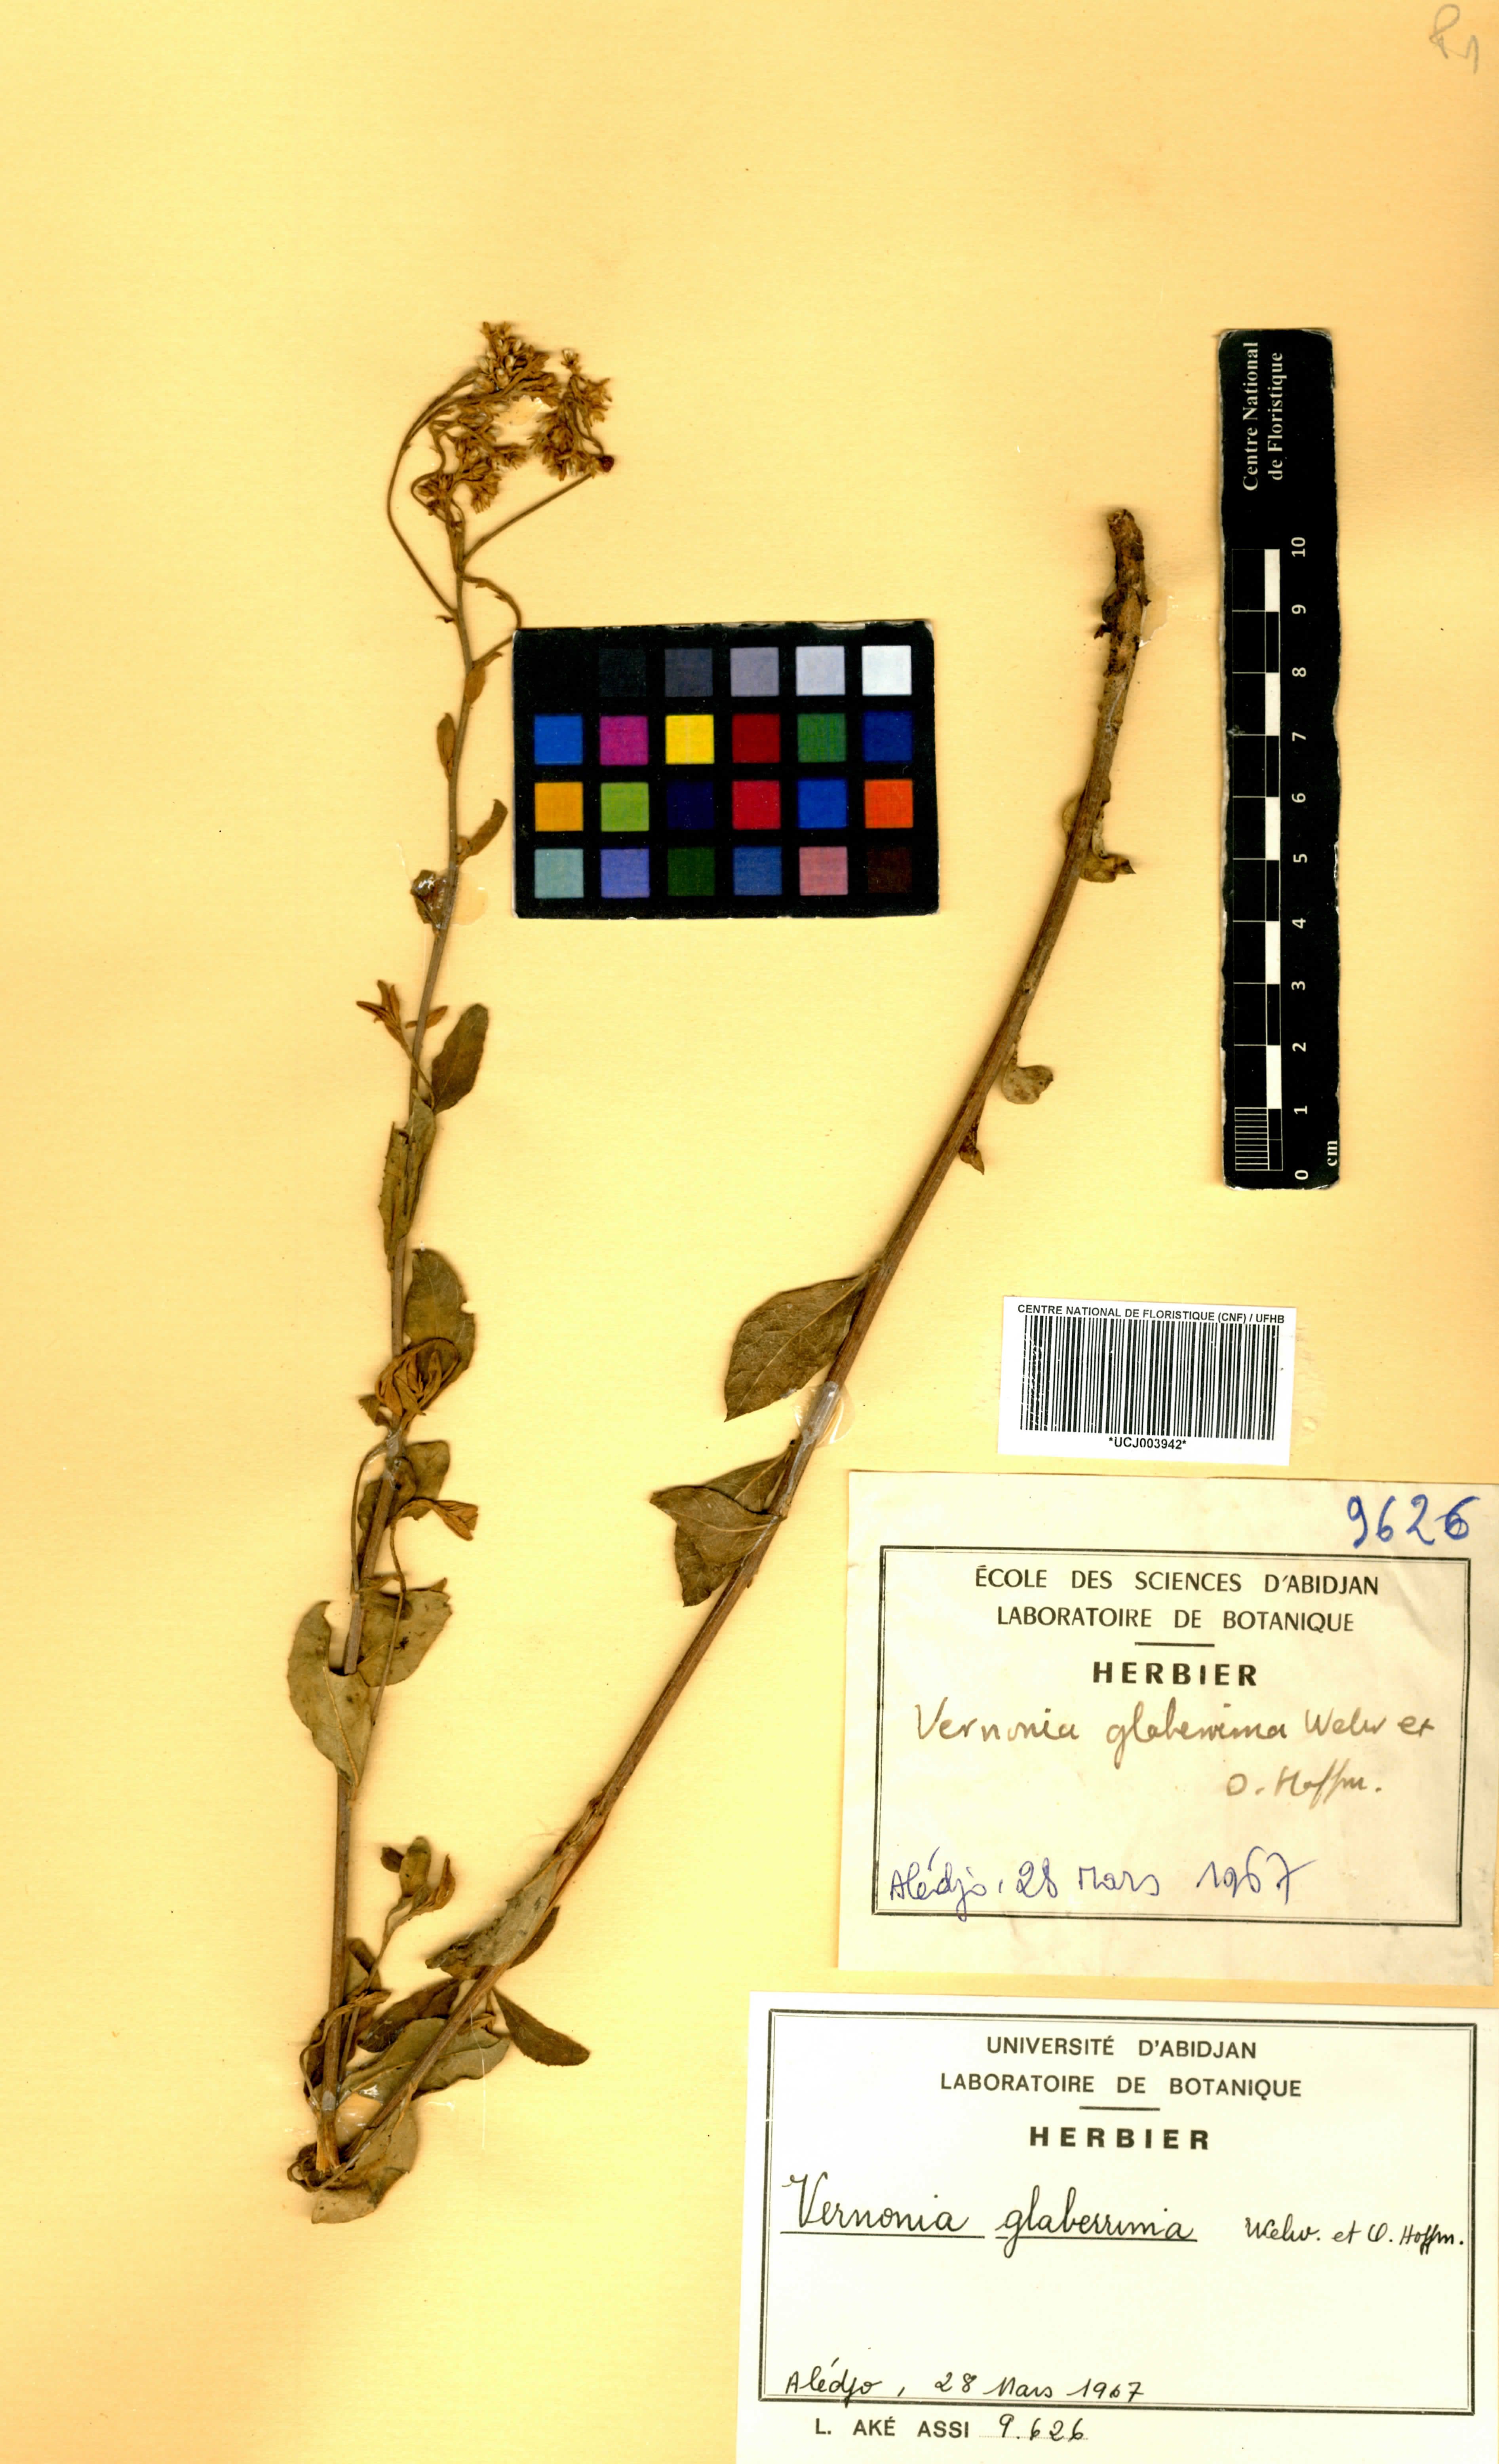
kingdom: Plantae
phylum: Tracheophyta
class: Magnoliopsida
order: Asterales
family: Asteraceae
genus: Gymnanthemum
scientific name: Gymnanthemum glaberrimum
